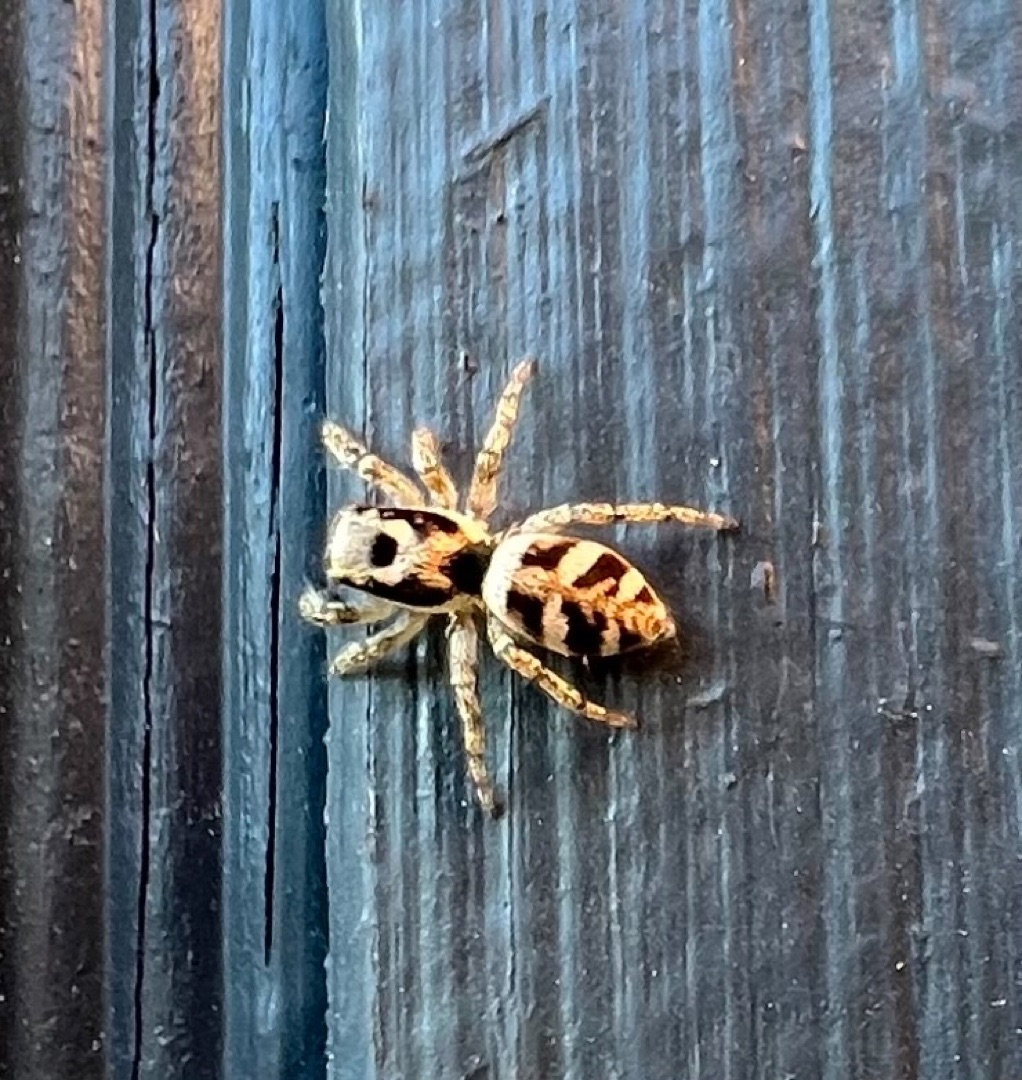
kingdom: Animalia
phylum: Arthropoda
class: Arachnida
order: Araneae
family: Salticidae
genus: Salticus
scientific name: Salticus scenicus
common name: Almindelig zebraedderkop
